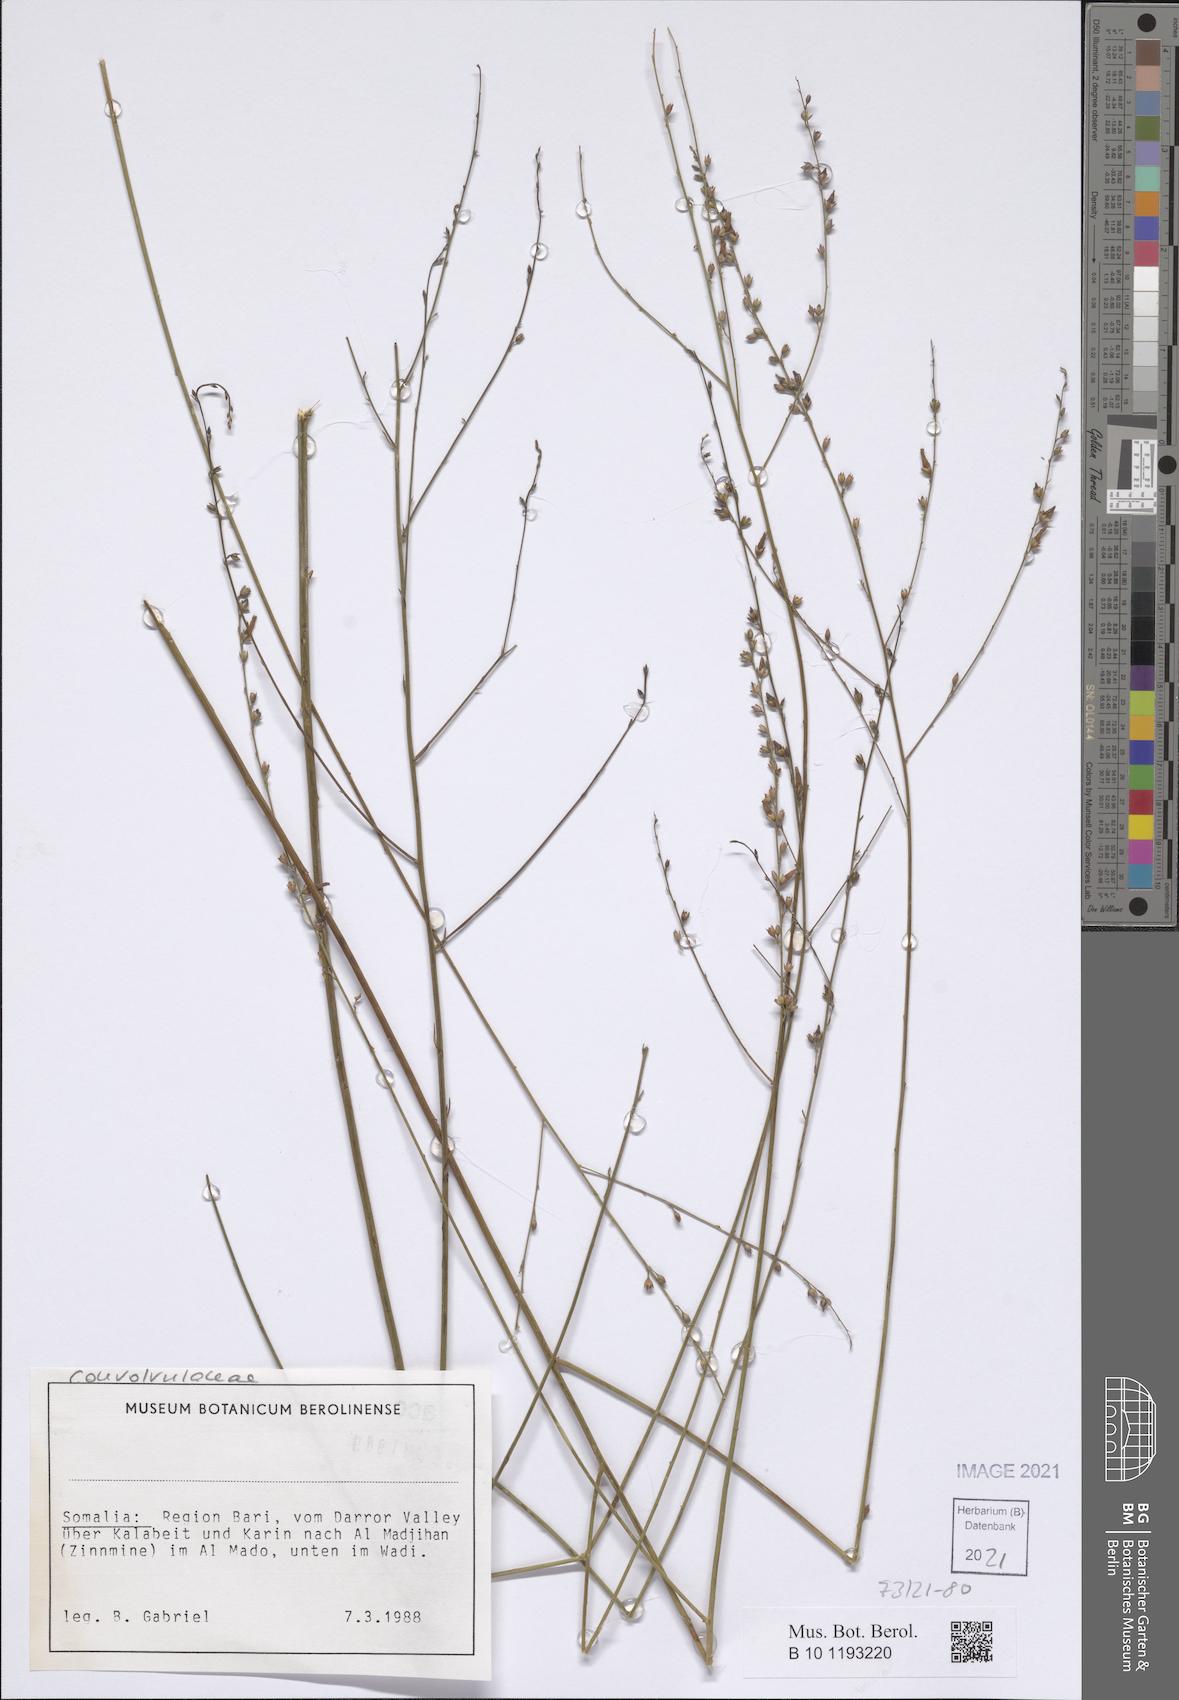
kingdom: Plantae
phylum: Tracheophyta
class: Magnoliopsida
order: Solanales
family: Convolvulaceae
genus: Convolvulus
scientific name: Convolvulus sericophyllus
